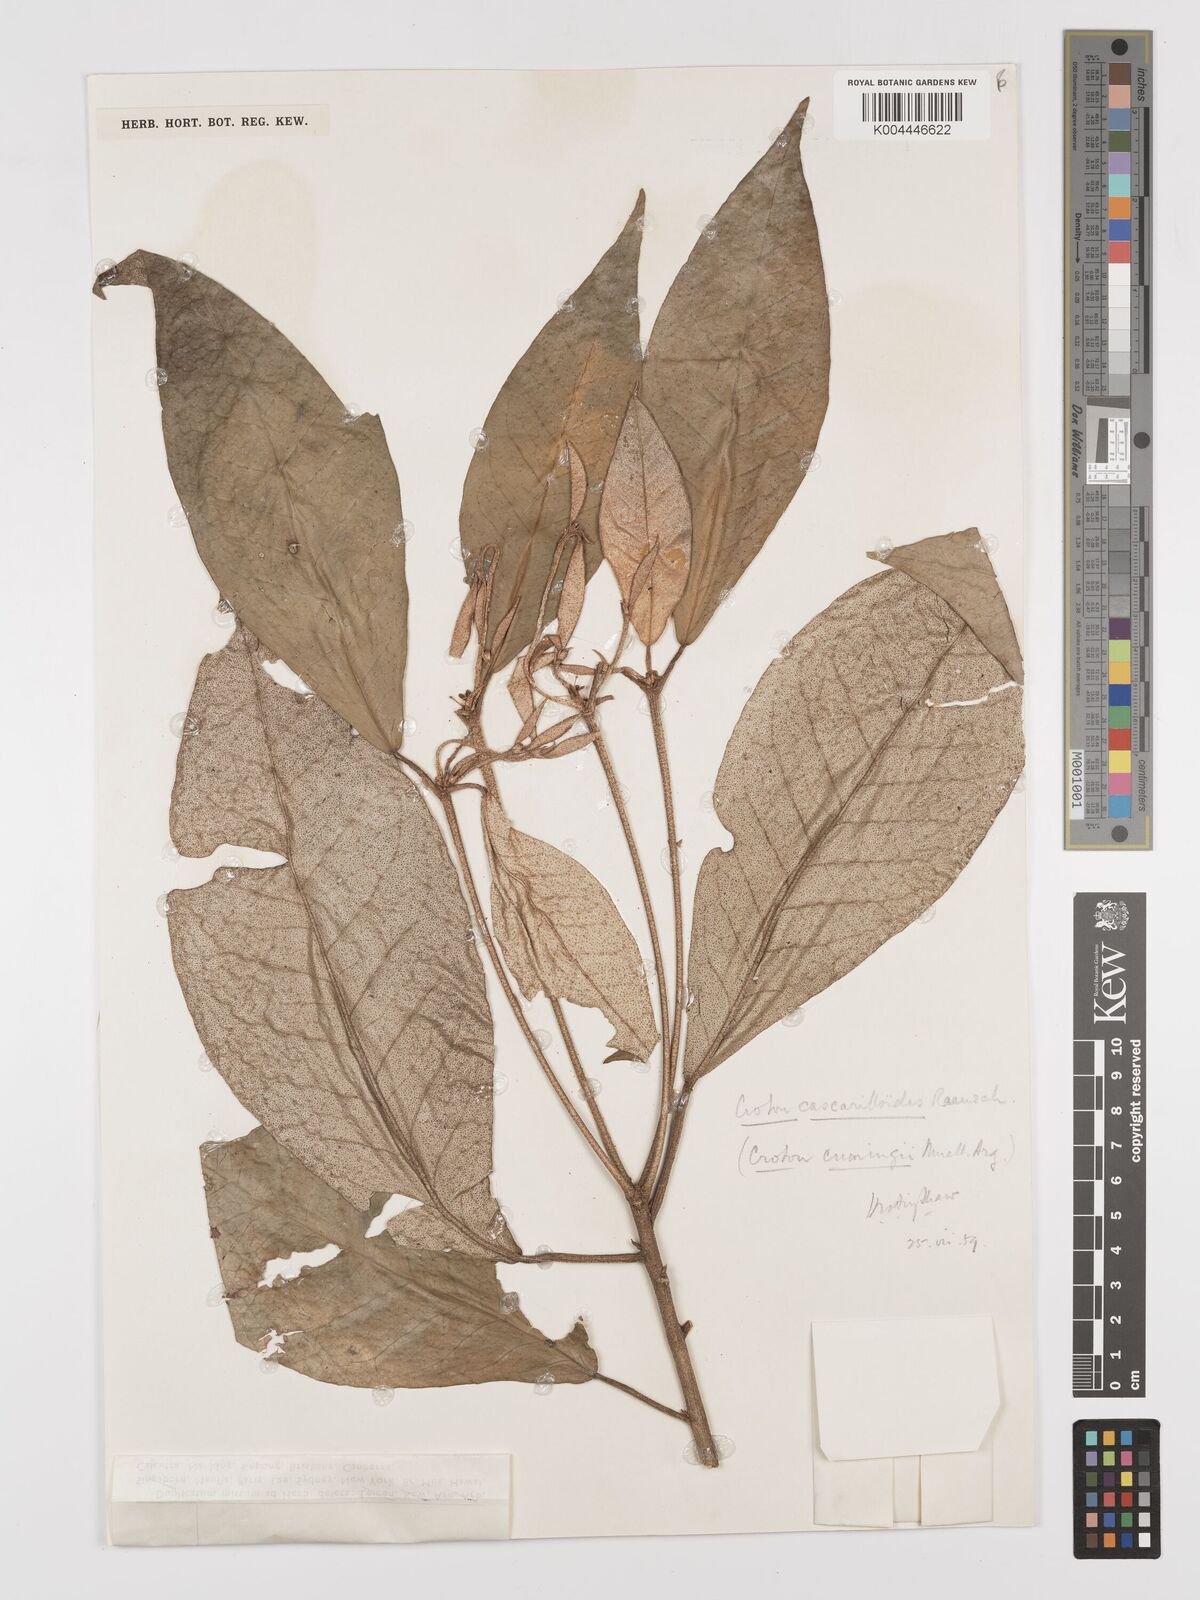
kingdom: Plantae
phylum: Tracheophyta
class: Magnoliopsida
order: Malpighiales
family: Euphorbiaceae
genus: Croton
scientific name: Croton cascarilloides
